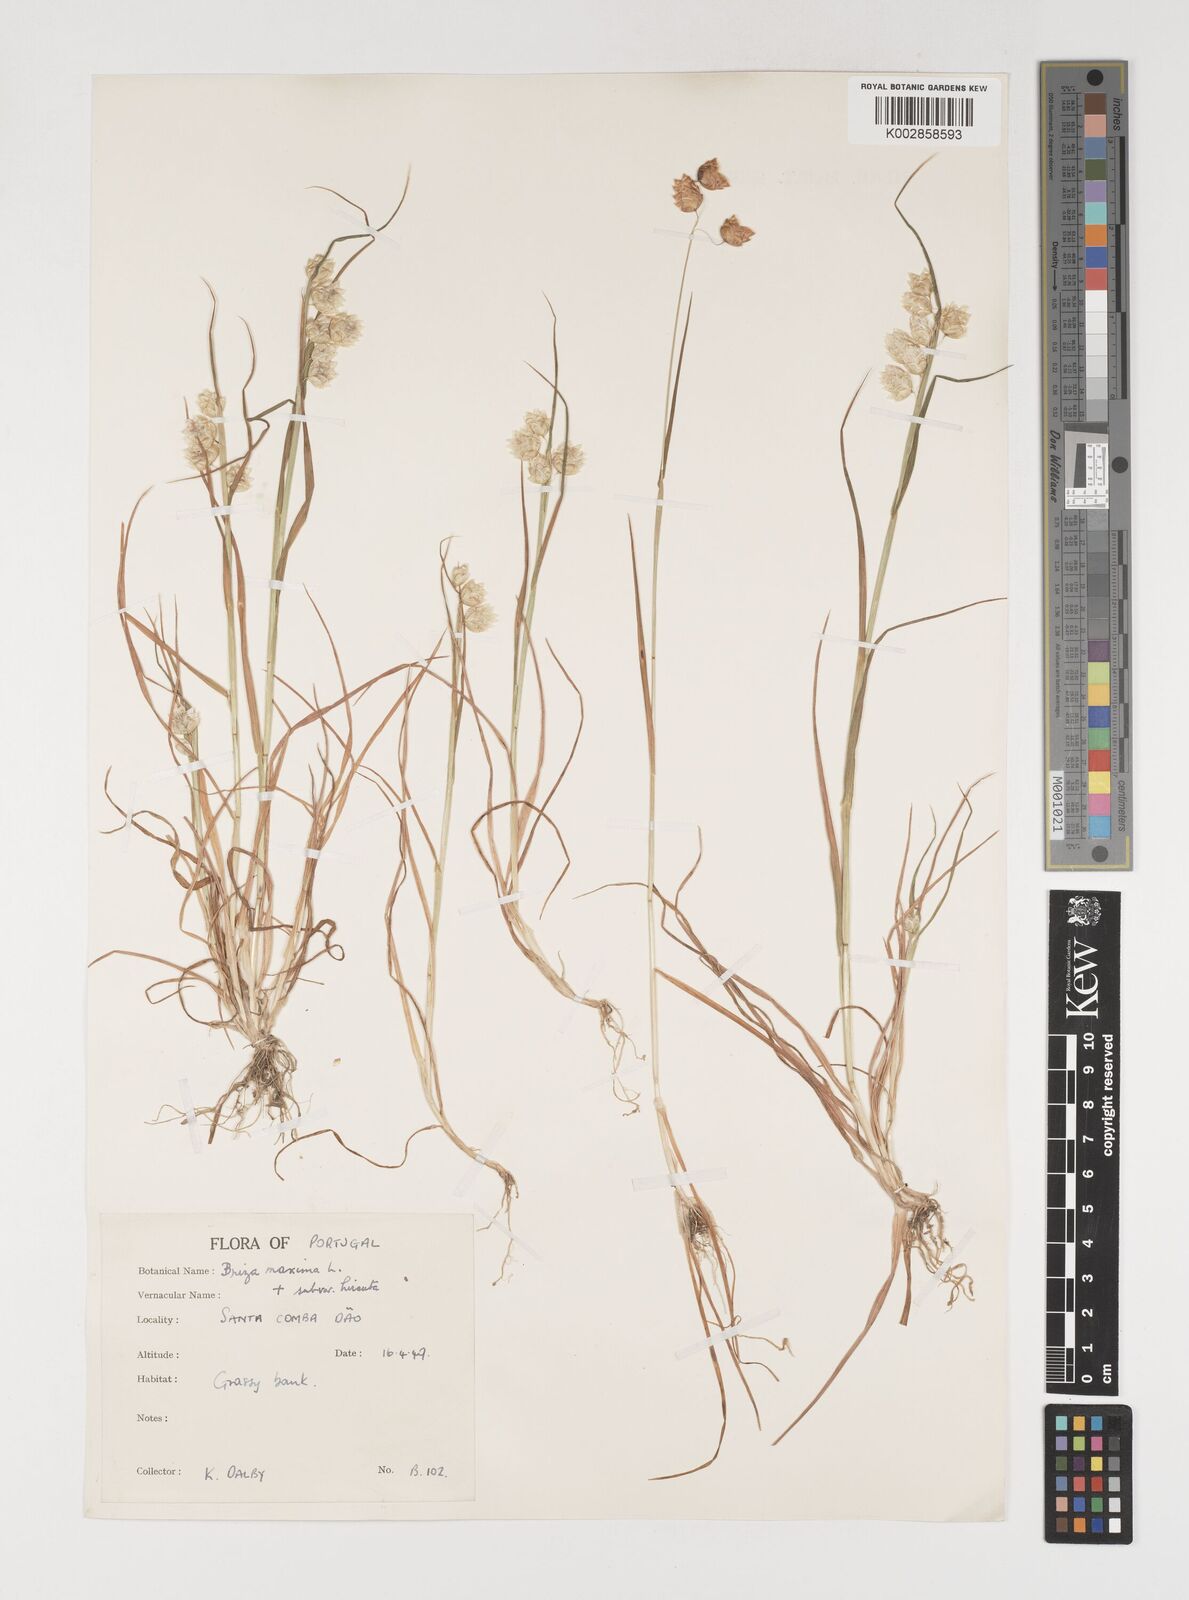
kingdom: Plantae
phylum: Tracheophyta
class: Liliopsida
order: Poales
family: Poaceae
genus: Briza
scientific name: Briza maxima
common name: Big quakinggrass
